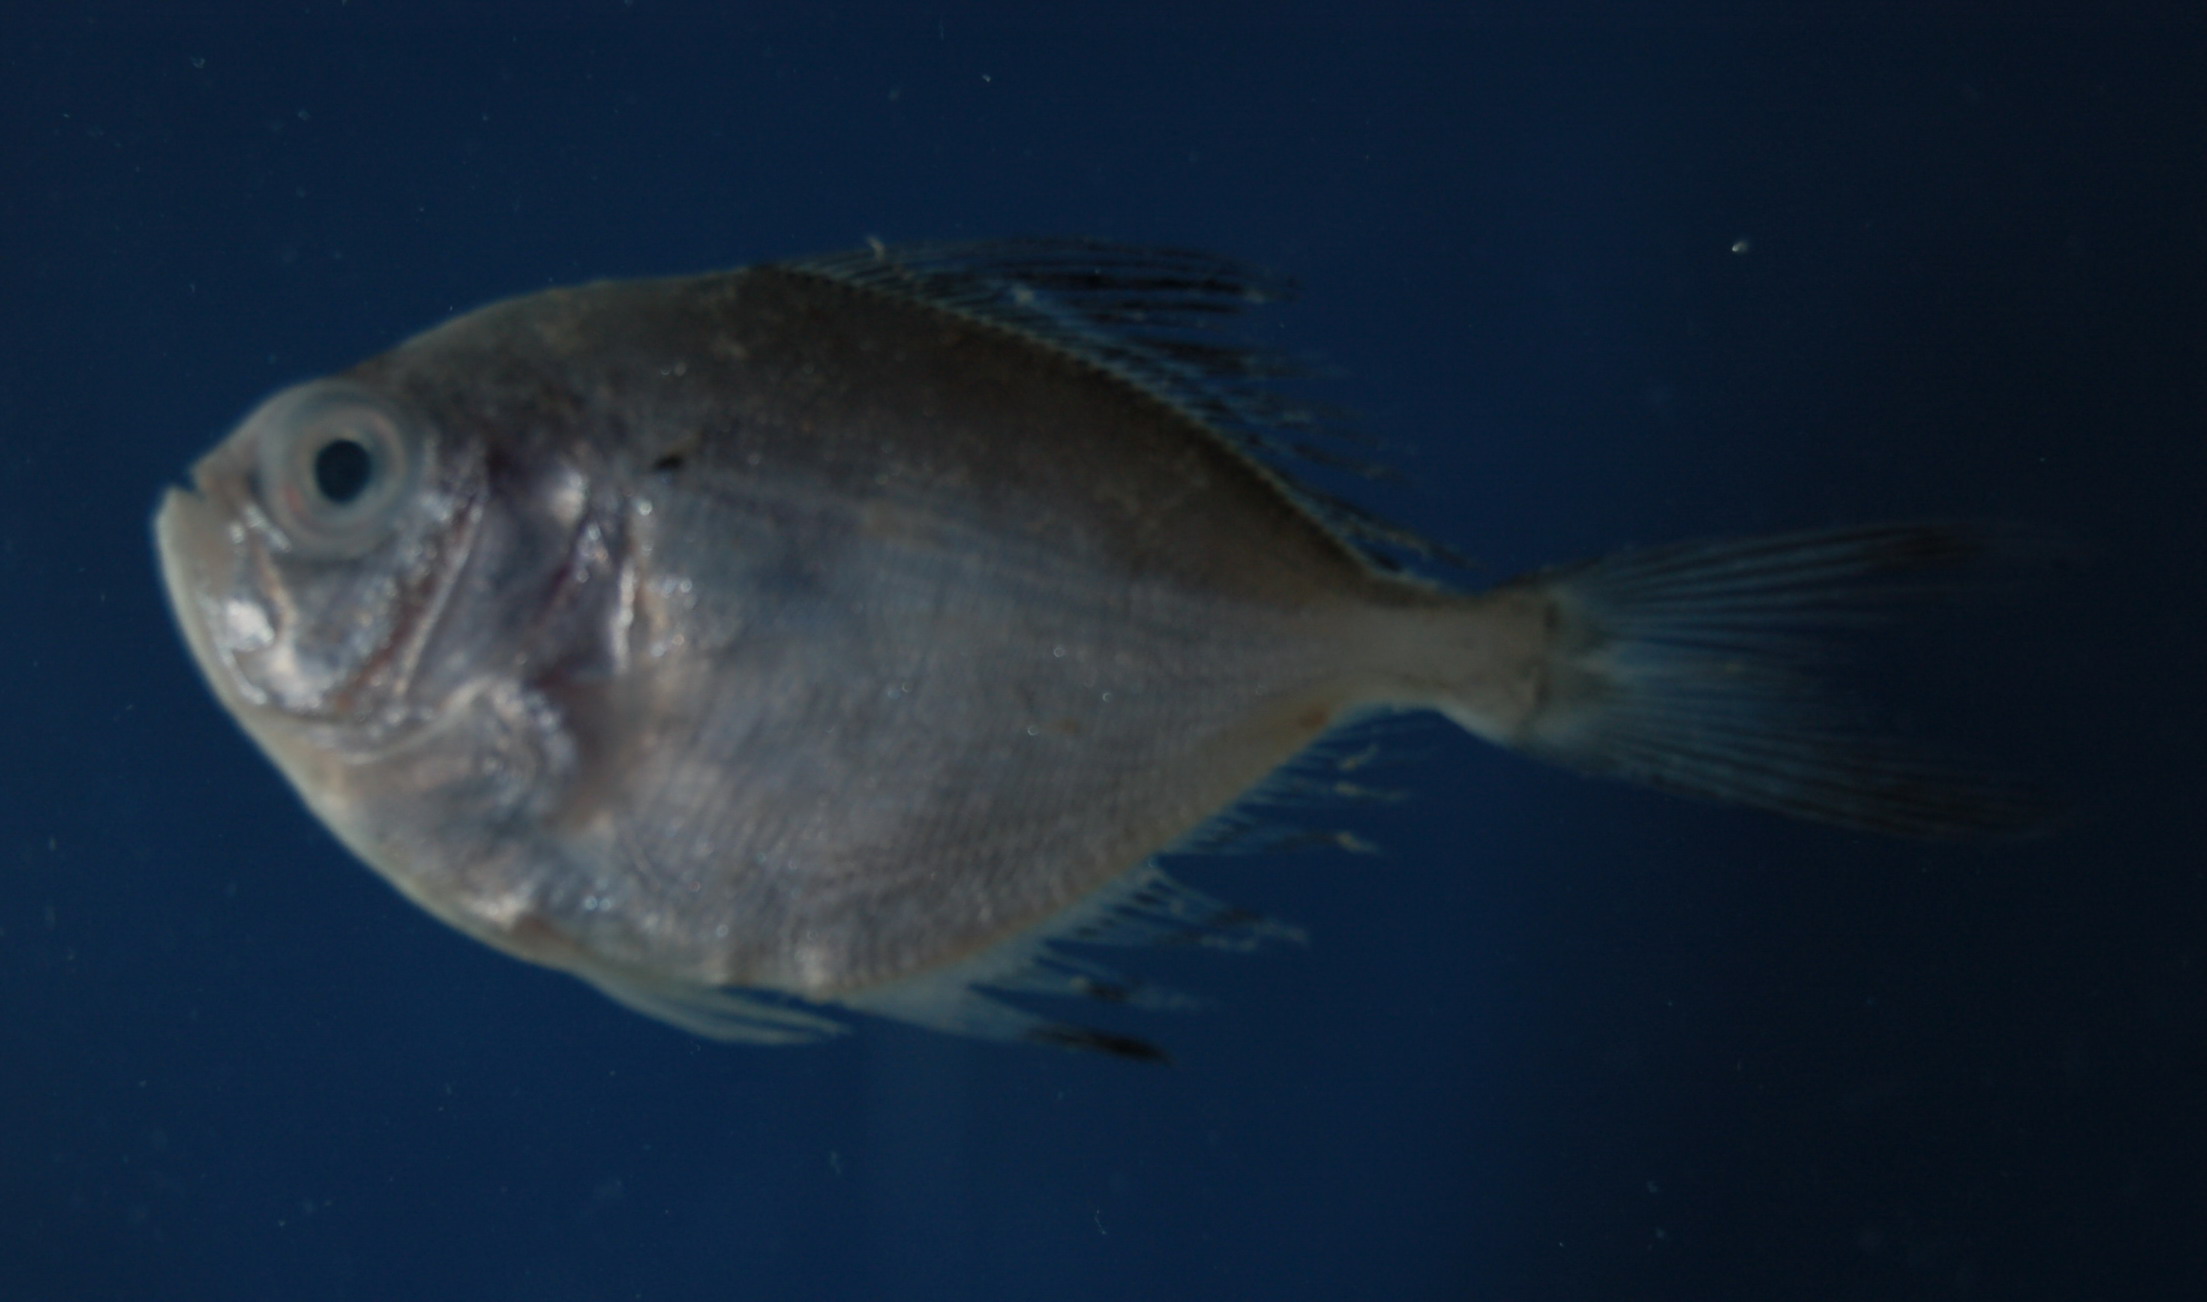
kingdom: Animalia
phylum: Chordata
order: Perciformes
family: Bramidae
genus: Brama
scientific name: Brama
